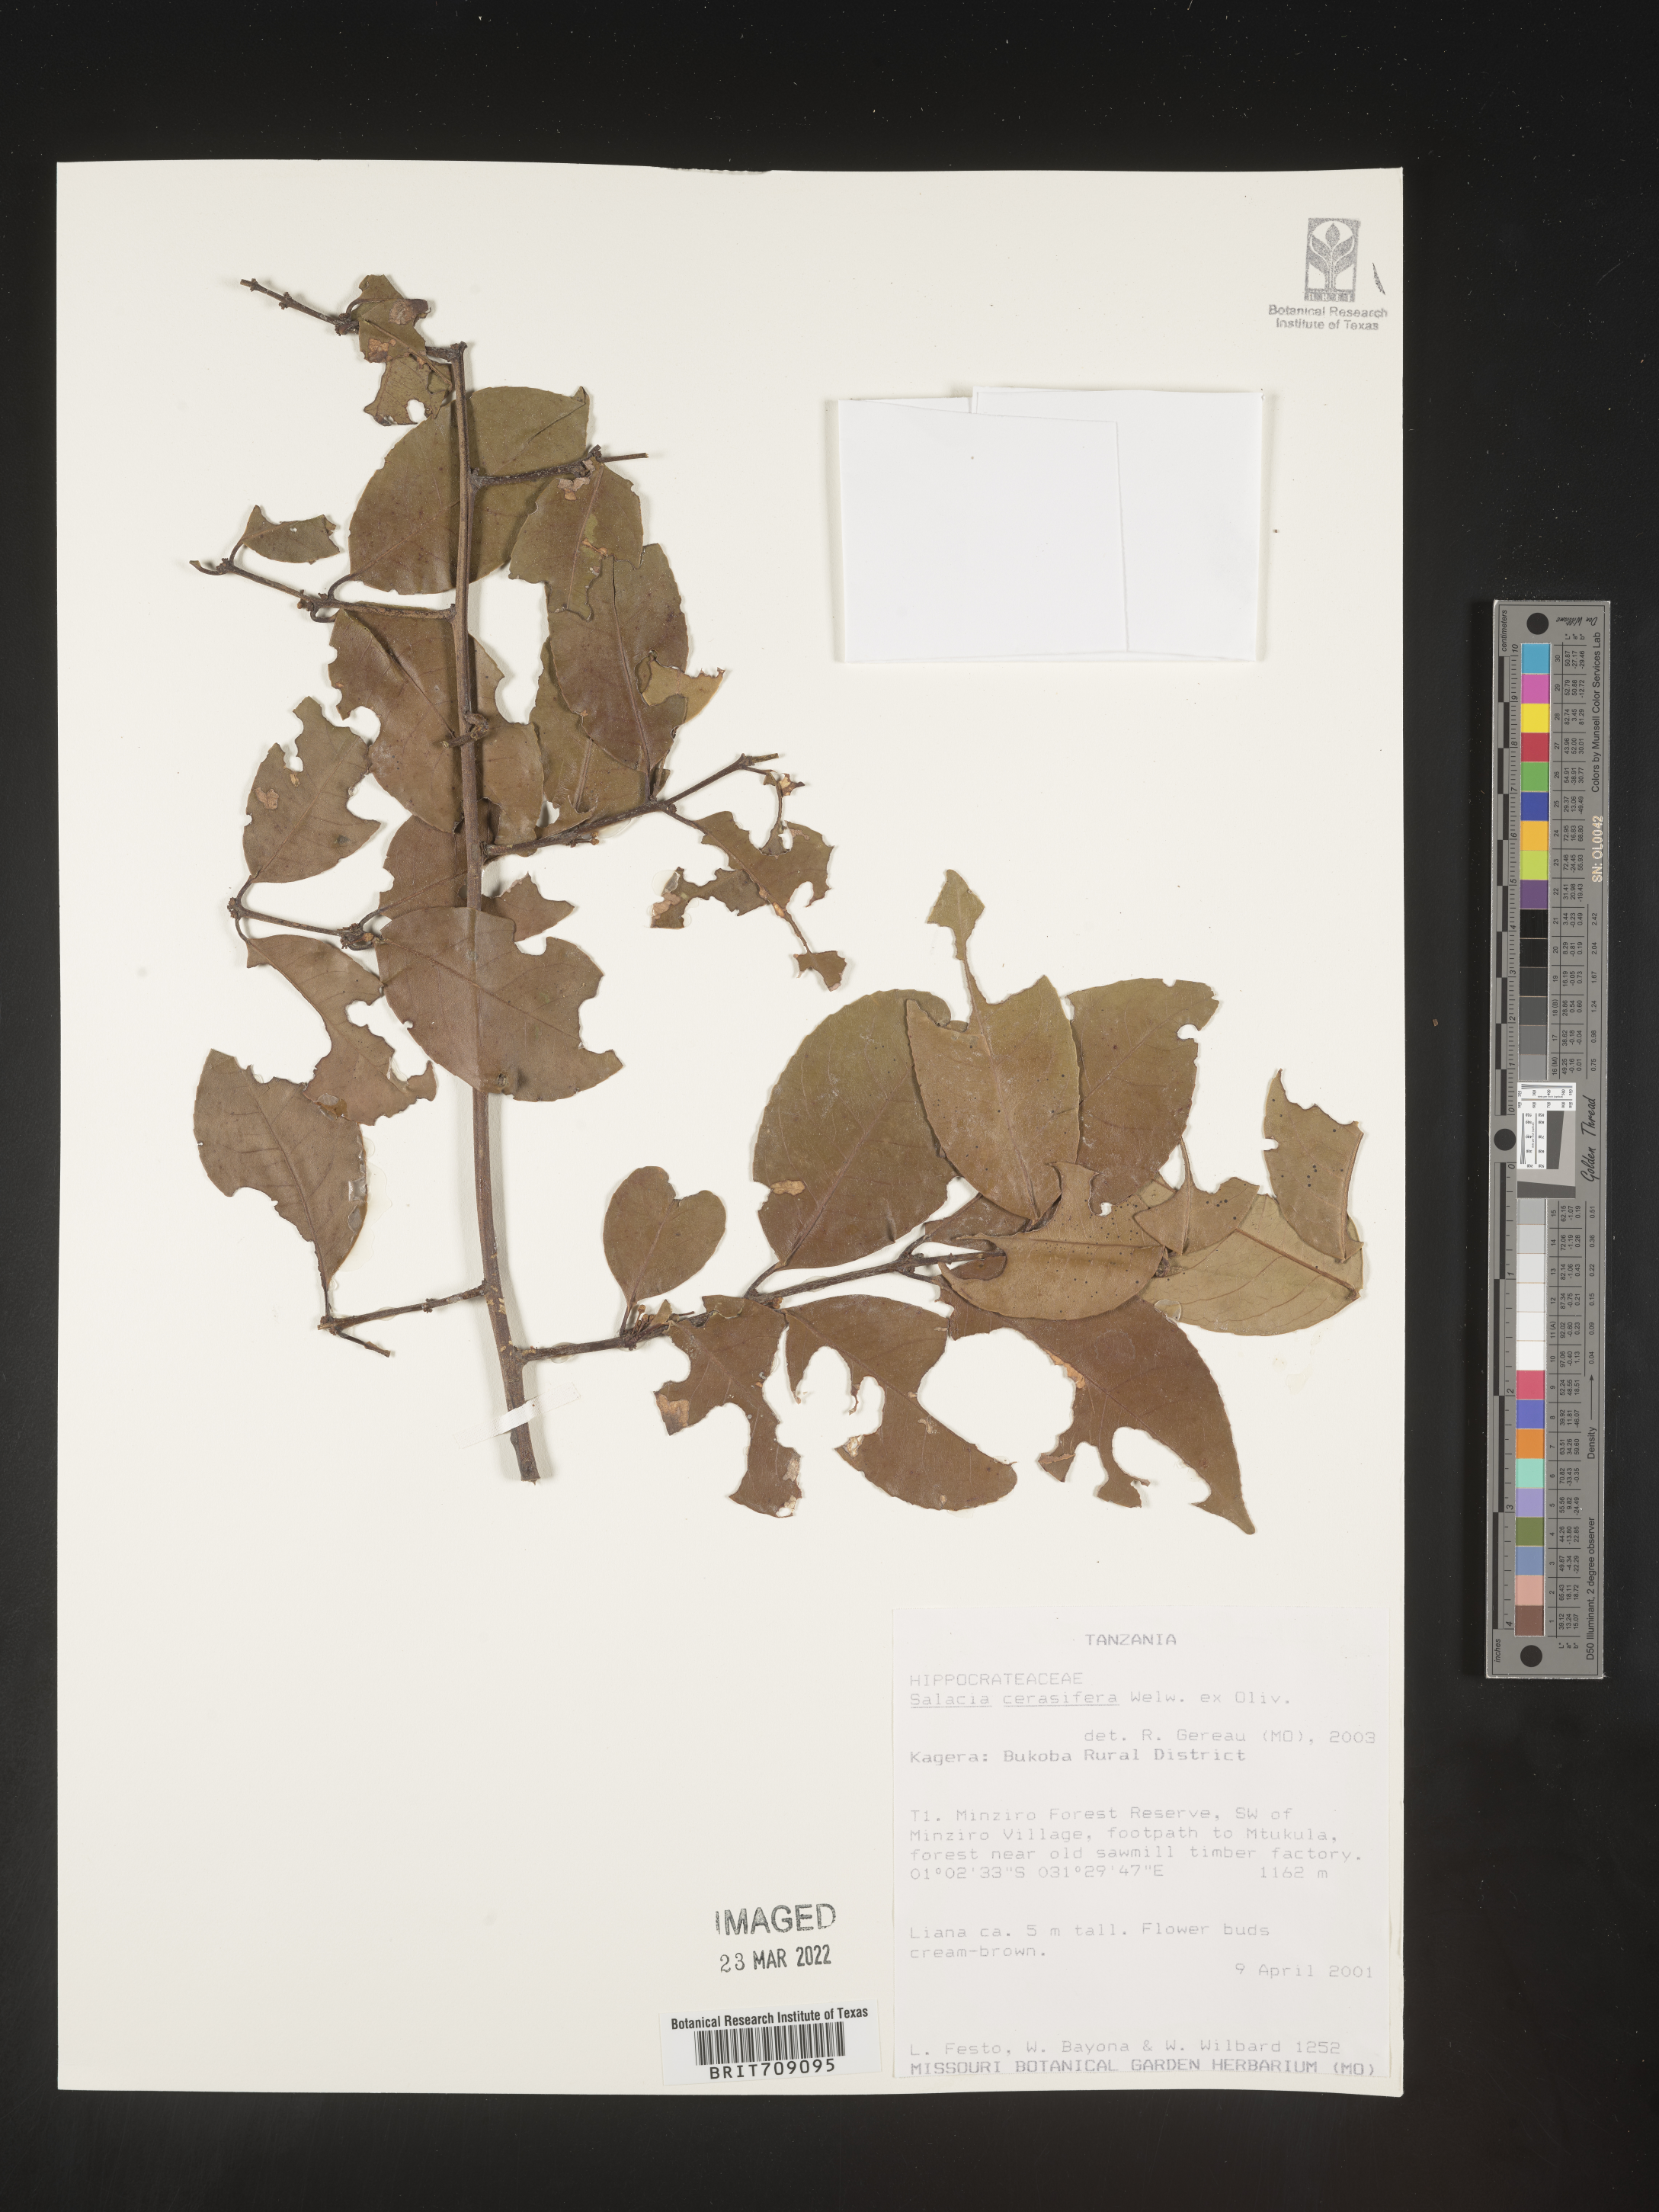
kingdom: Plantae
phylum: Tracheophyta
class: Magnoliopsida
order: Celastrales
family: Celastraceae
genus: Salacia
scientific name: Salacia
